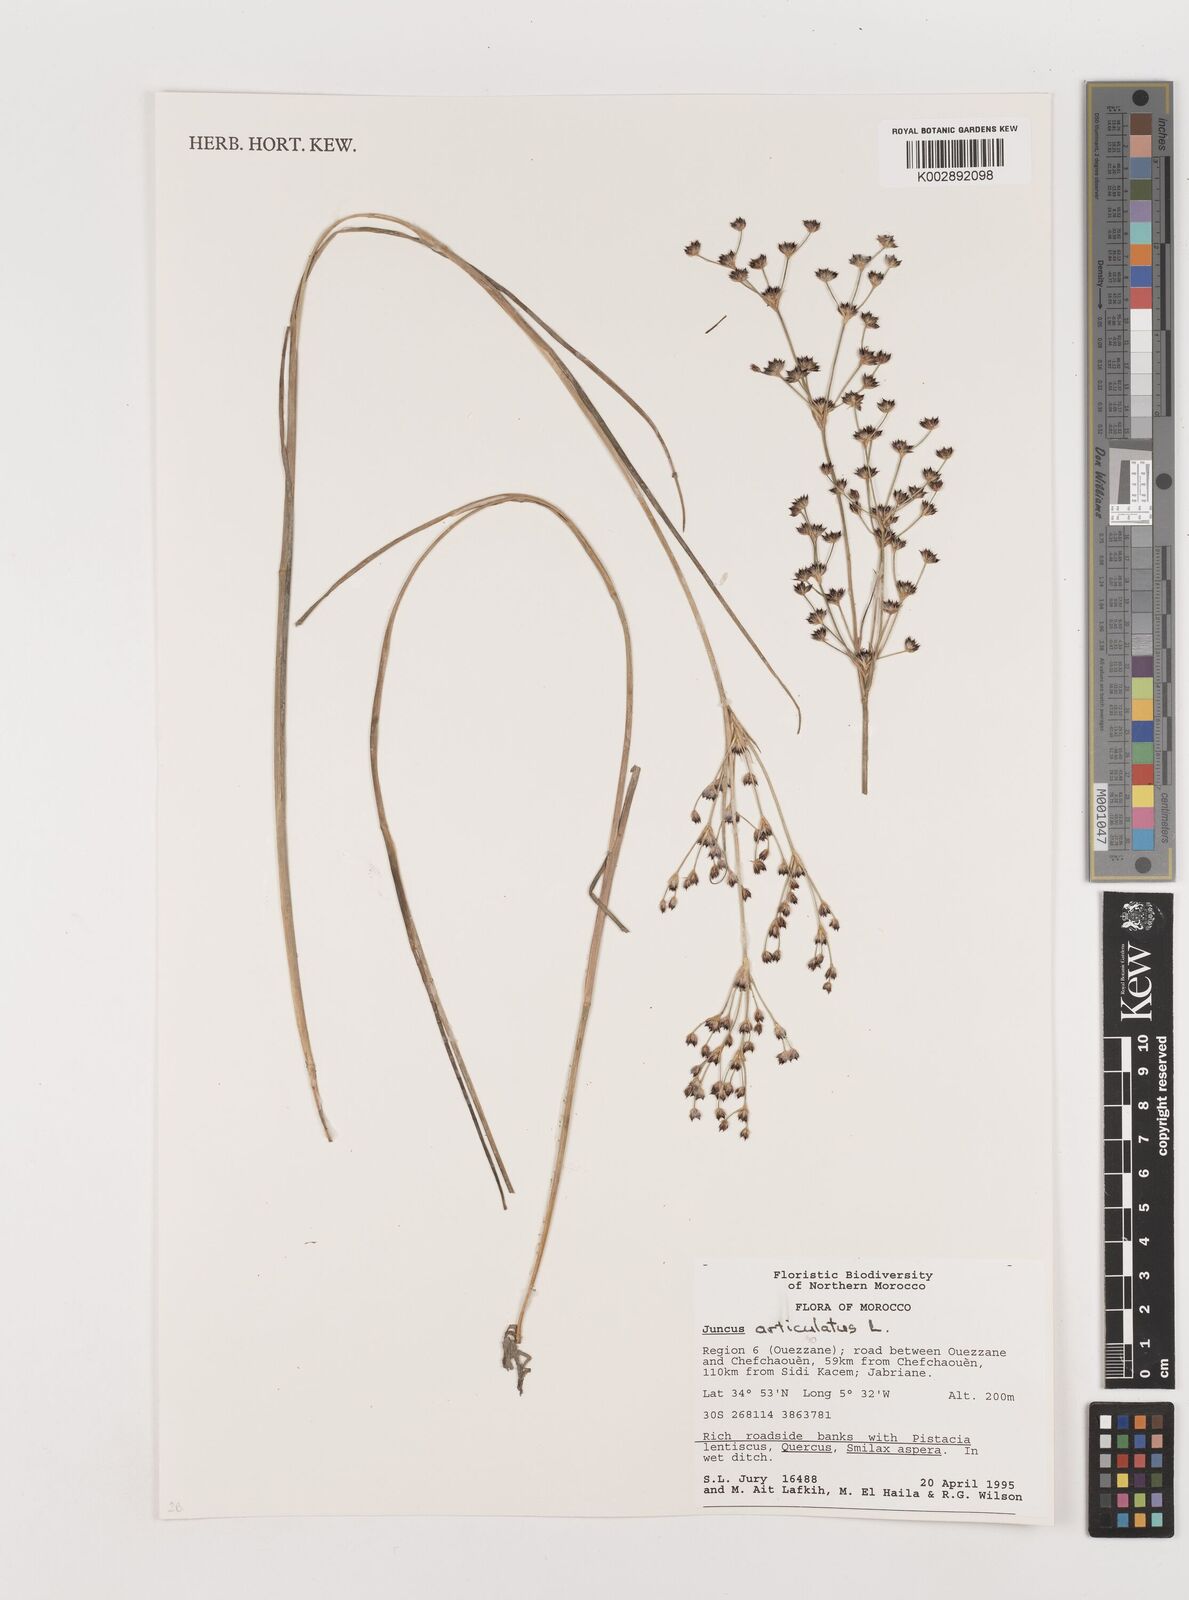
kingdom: Plantae
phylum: Tracheophyta
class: Liliopsida
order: Poales
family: Juncaceae
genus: Juncus
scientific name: Juncus articulatus
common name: Jointed rush
